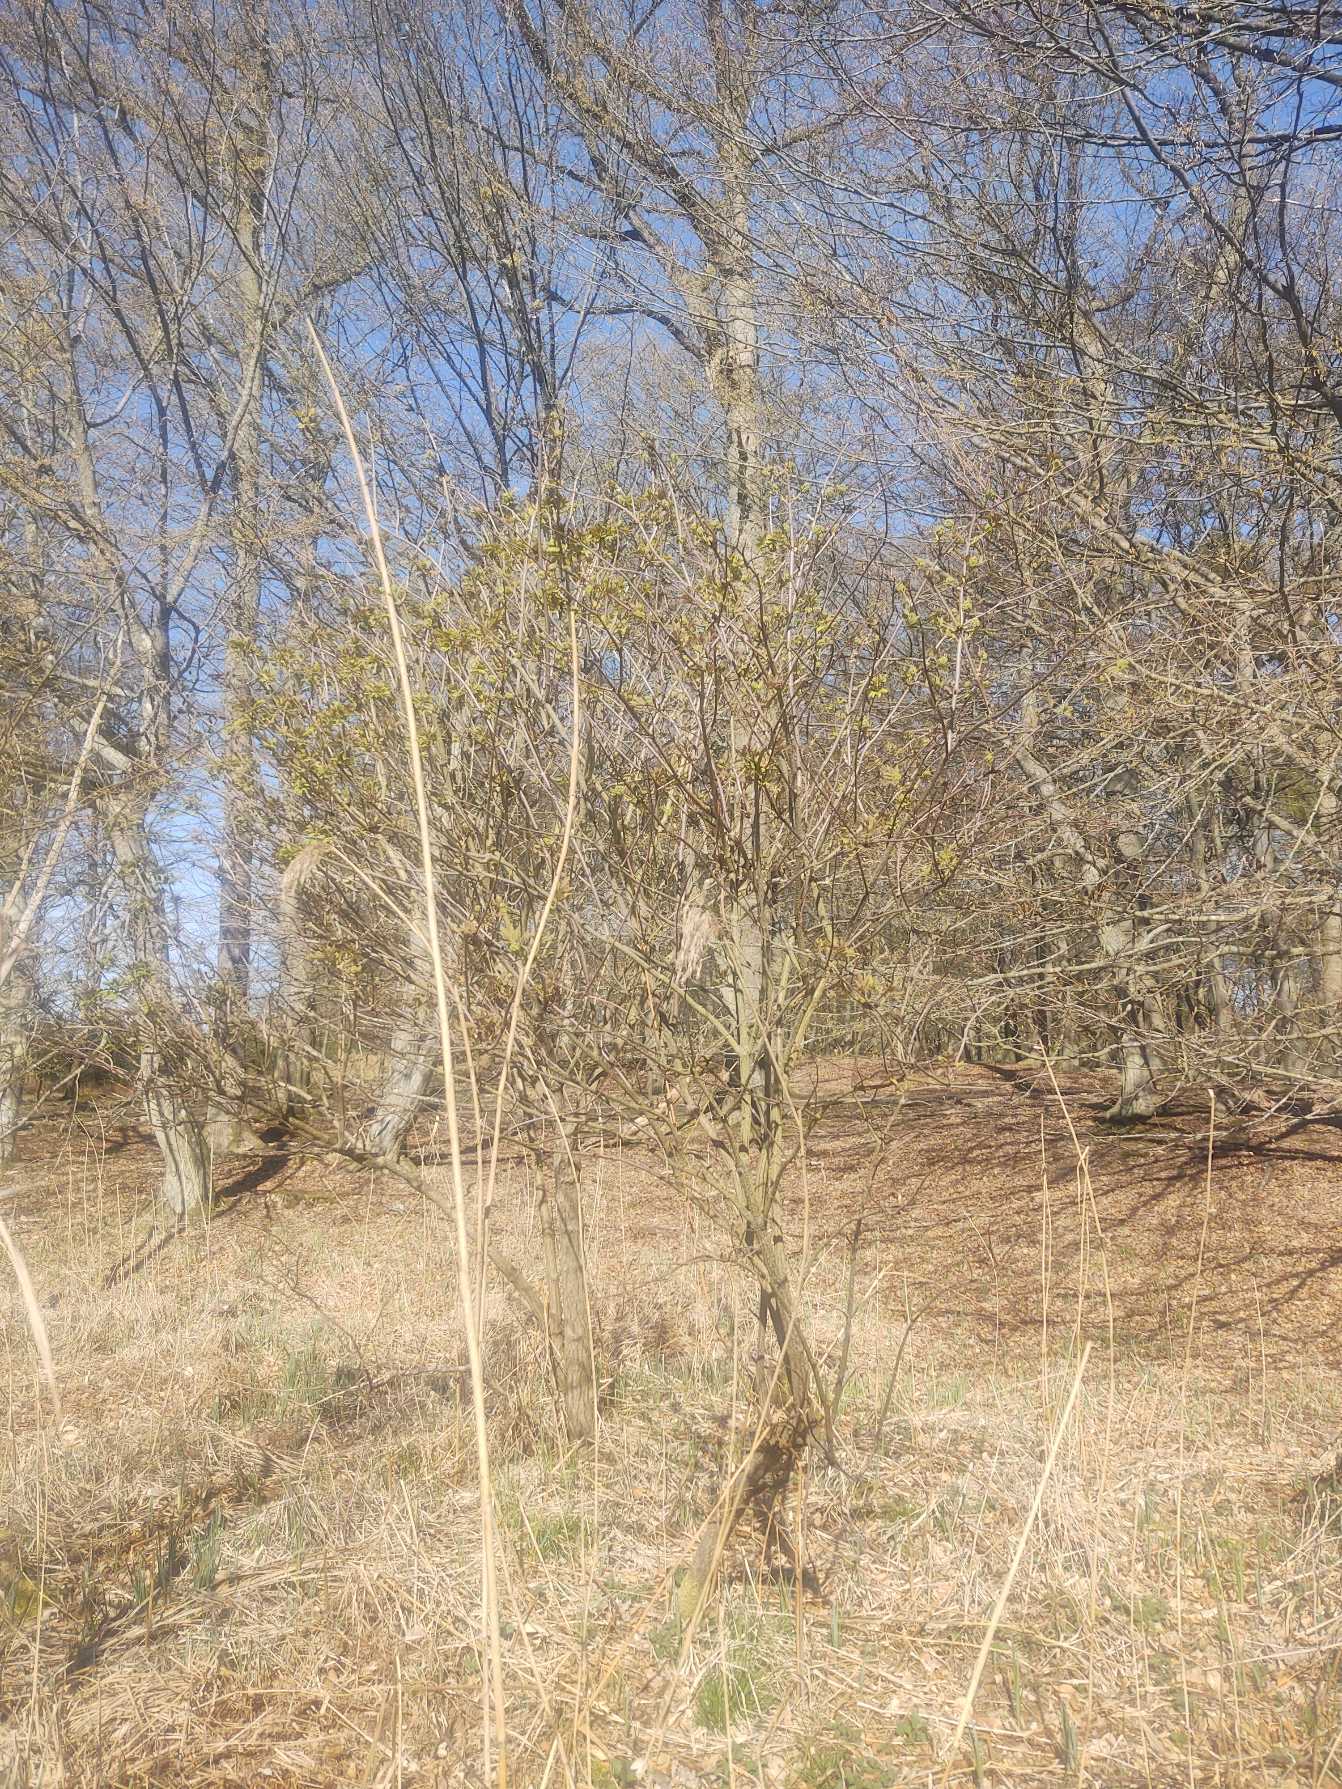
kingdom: Plantae
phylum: Tracheophyta
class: Magnoliopsida
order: Dipsacales
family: Viburnaceae
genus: Sambucus
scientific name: Sambucus racemosa
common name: Drue-hyld
